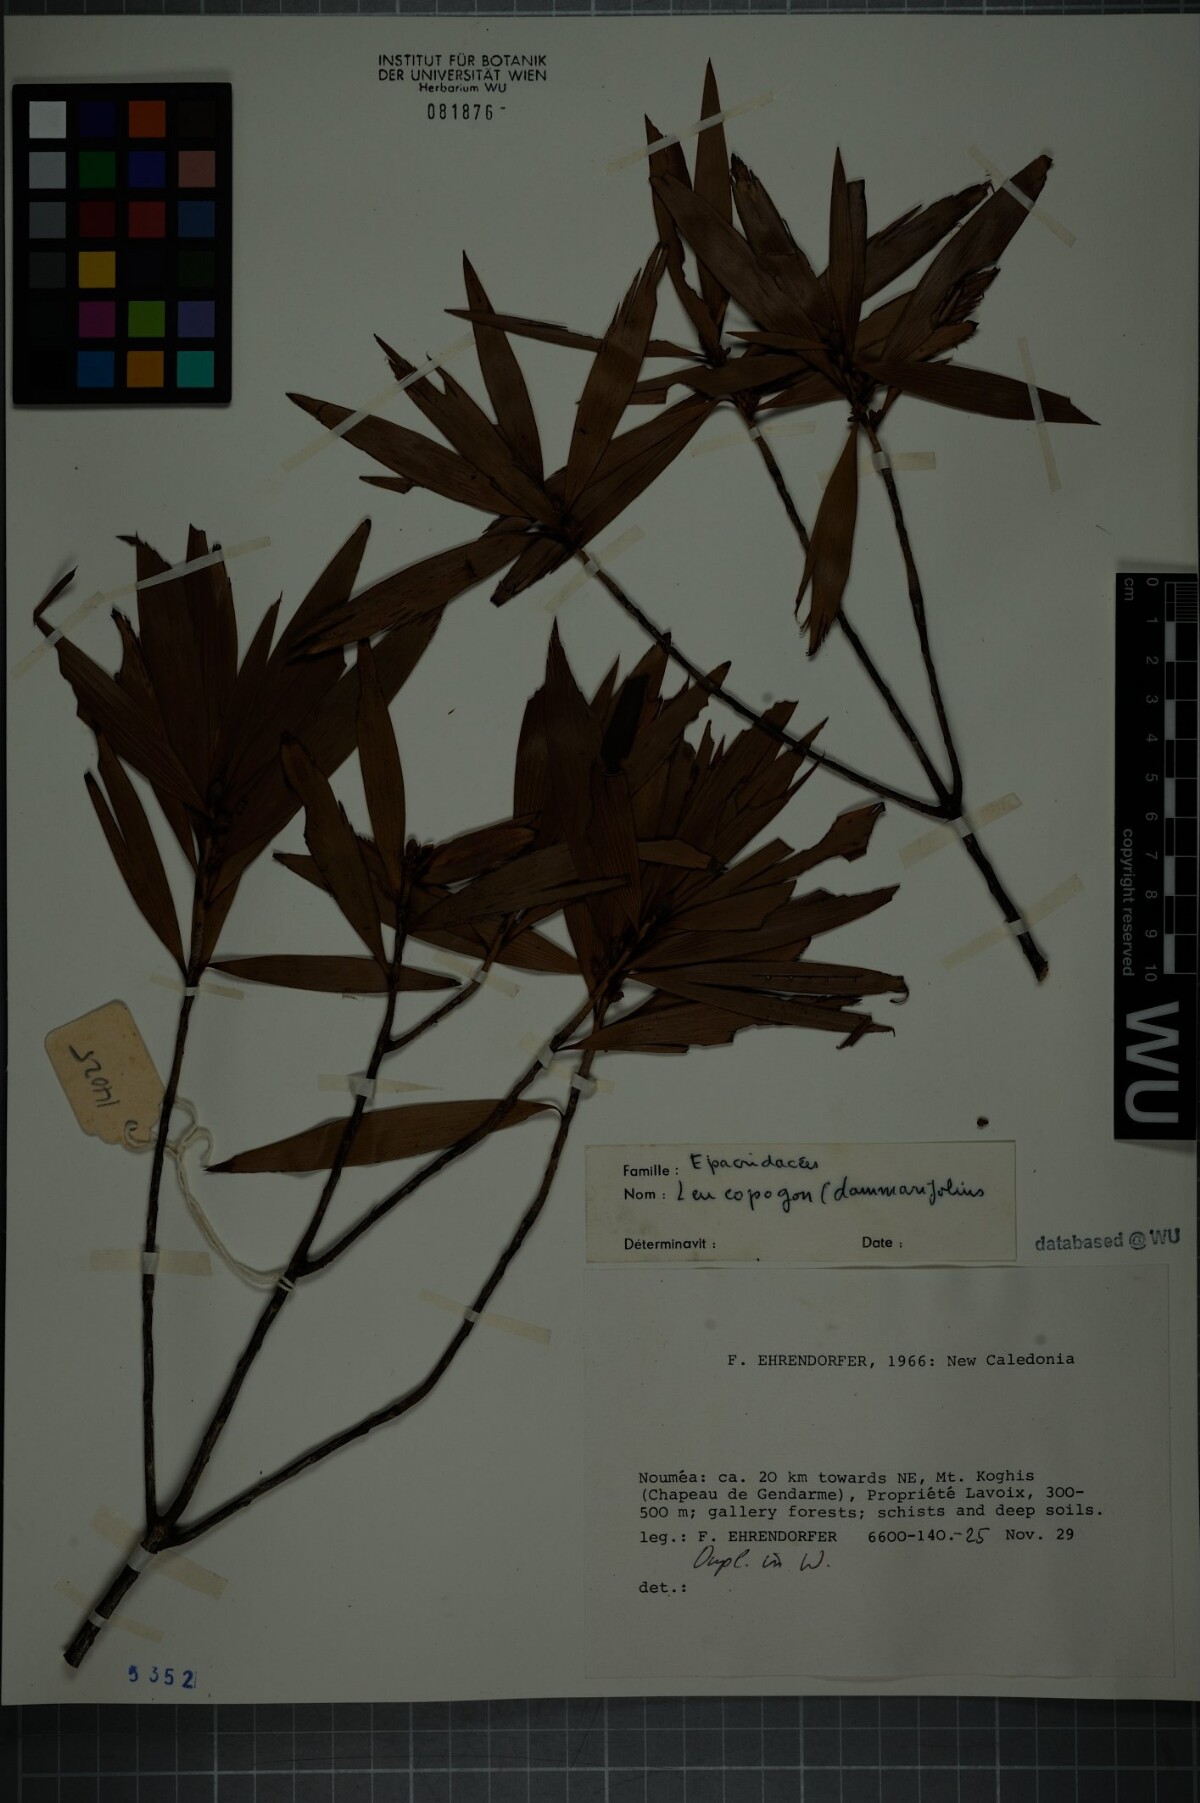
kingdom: Plantae
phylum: Tracheophyta
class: Magnoliopsida
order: Ericales
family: Ericaceae
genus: Styphelia
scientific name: Styphelia dammarifolia
